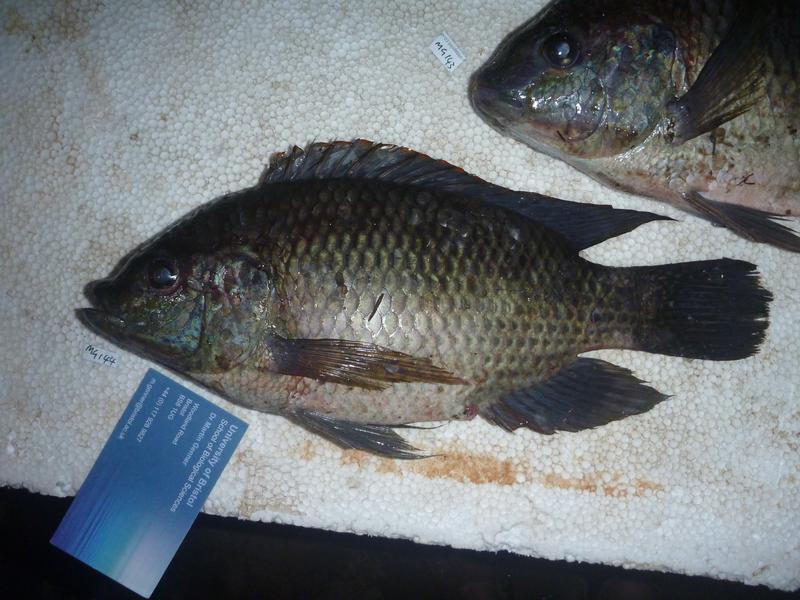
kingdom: Animalia
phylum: Chordata
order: Perciformes
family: Cichlidae
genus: Oreochromis
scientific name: Oreochromis upembae
